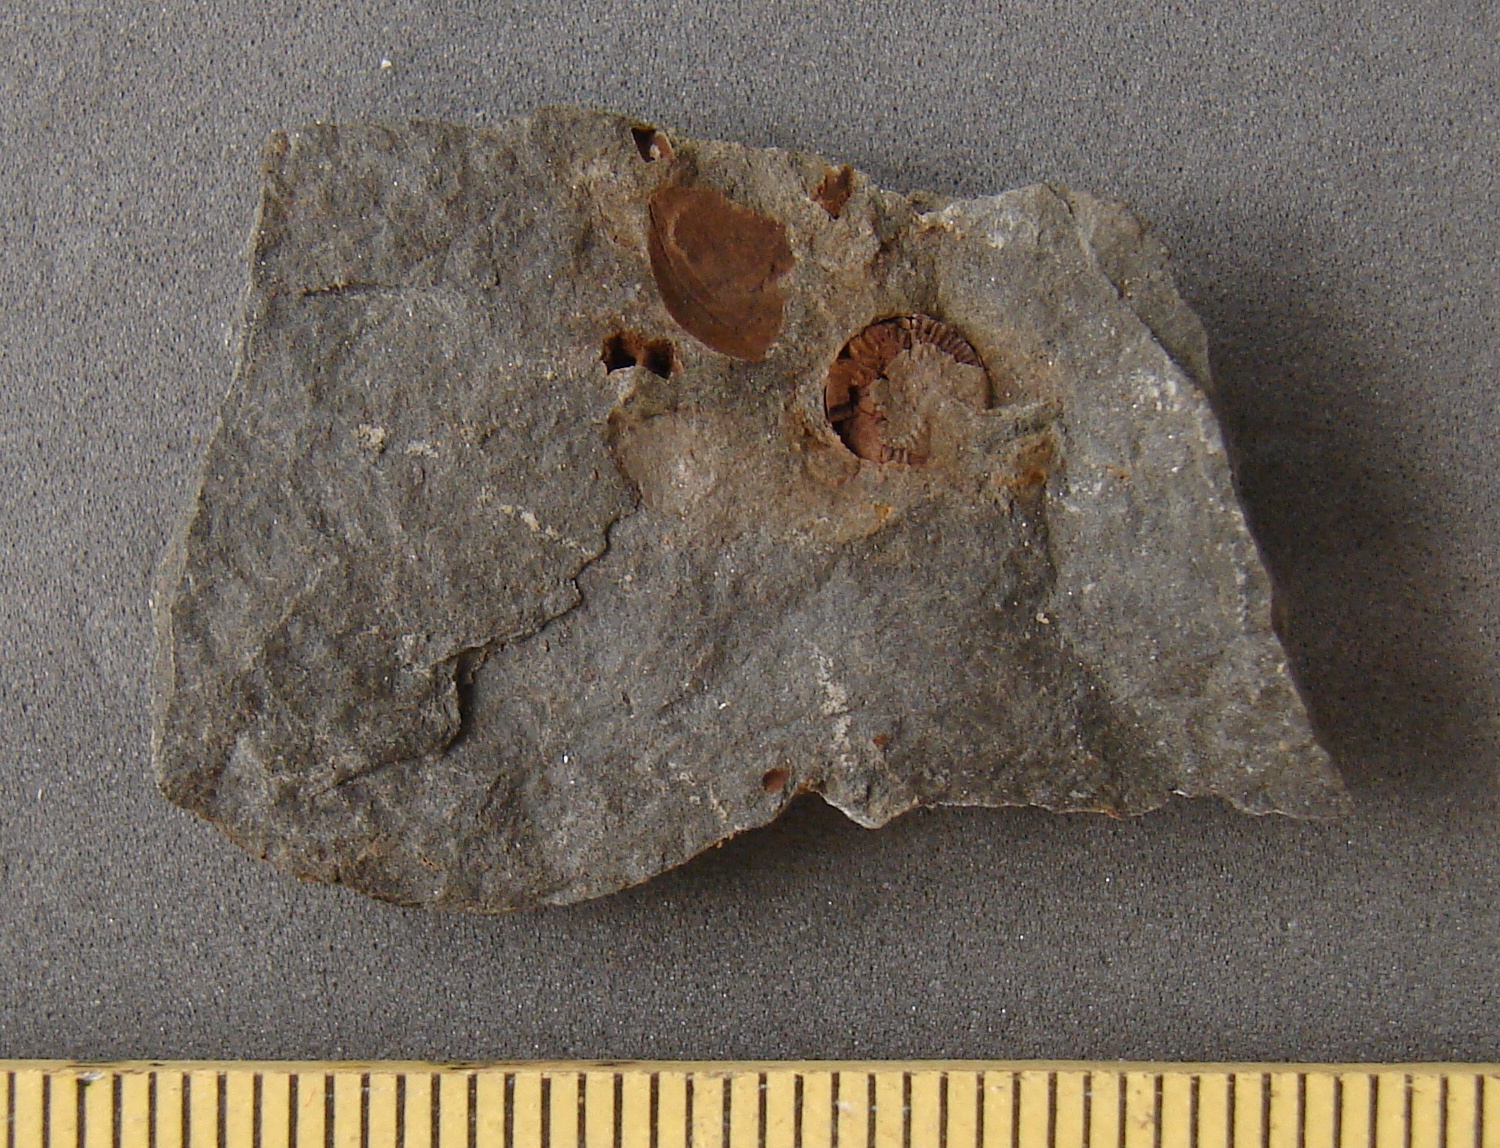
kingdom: Animalia
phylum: Brachiopoda
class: Craniata
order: Craniida
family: Craniidae
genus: Petrocrania
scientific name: Petrocrania
